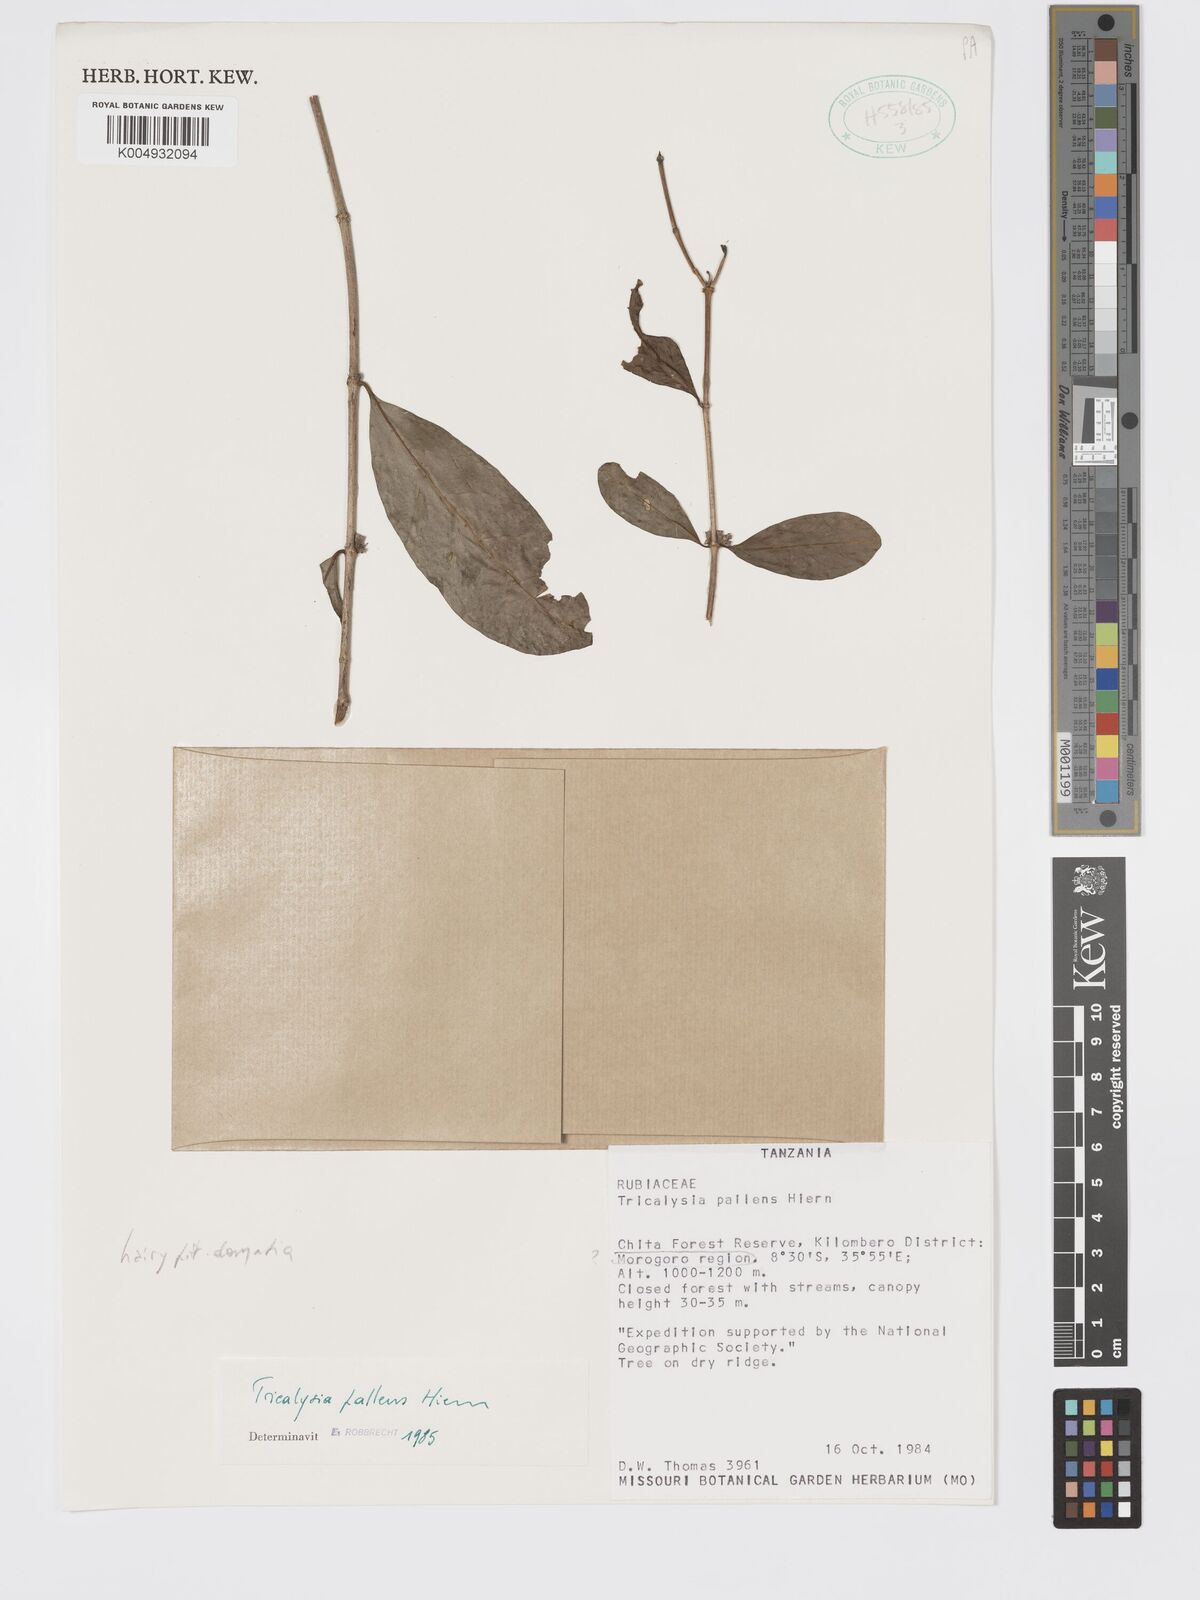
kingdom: Plantae
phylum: Tracheophyta
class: Magnoliopsida
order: Gentianales
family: Rubiaceae
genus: Tricalysia
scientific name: Tricalysia pallens
